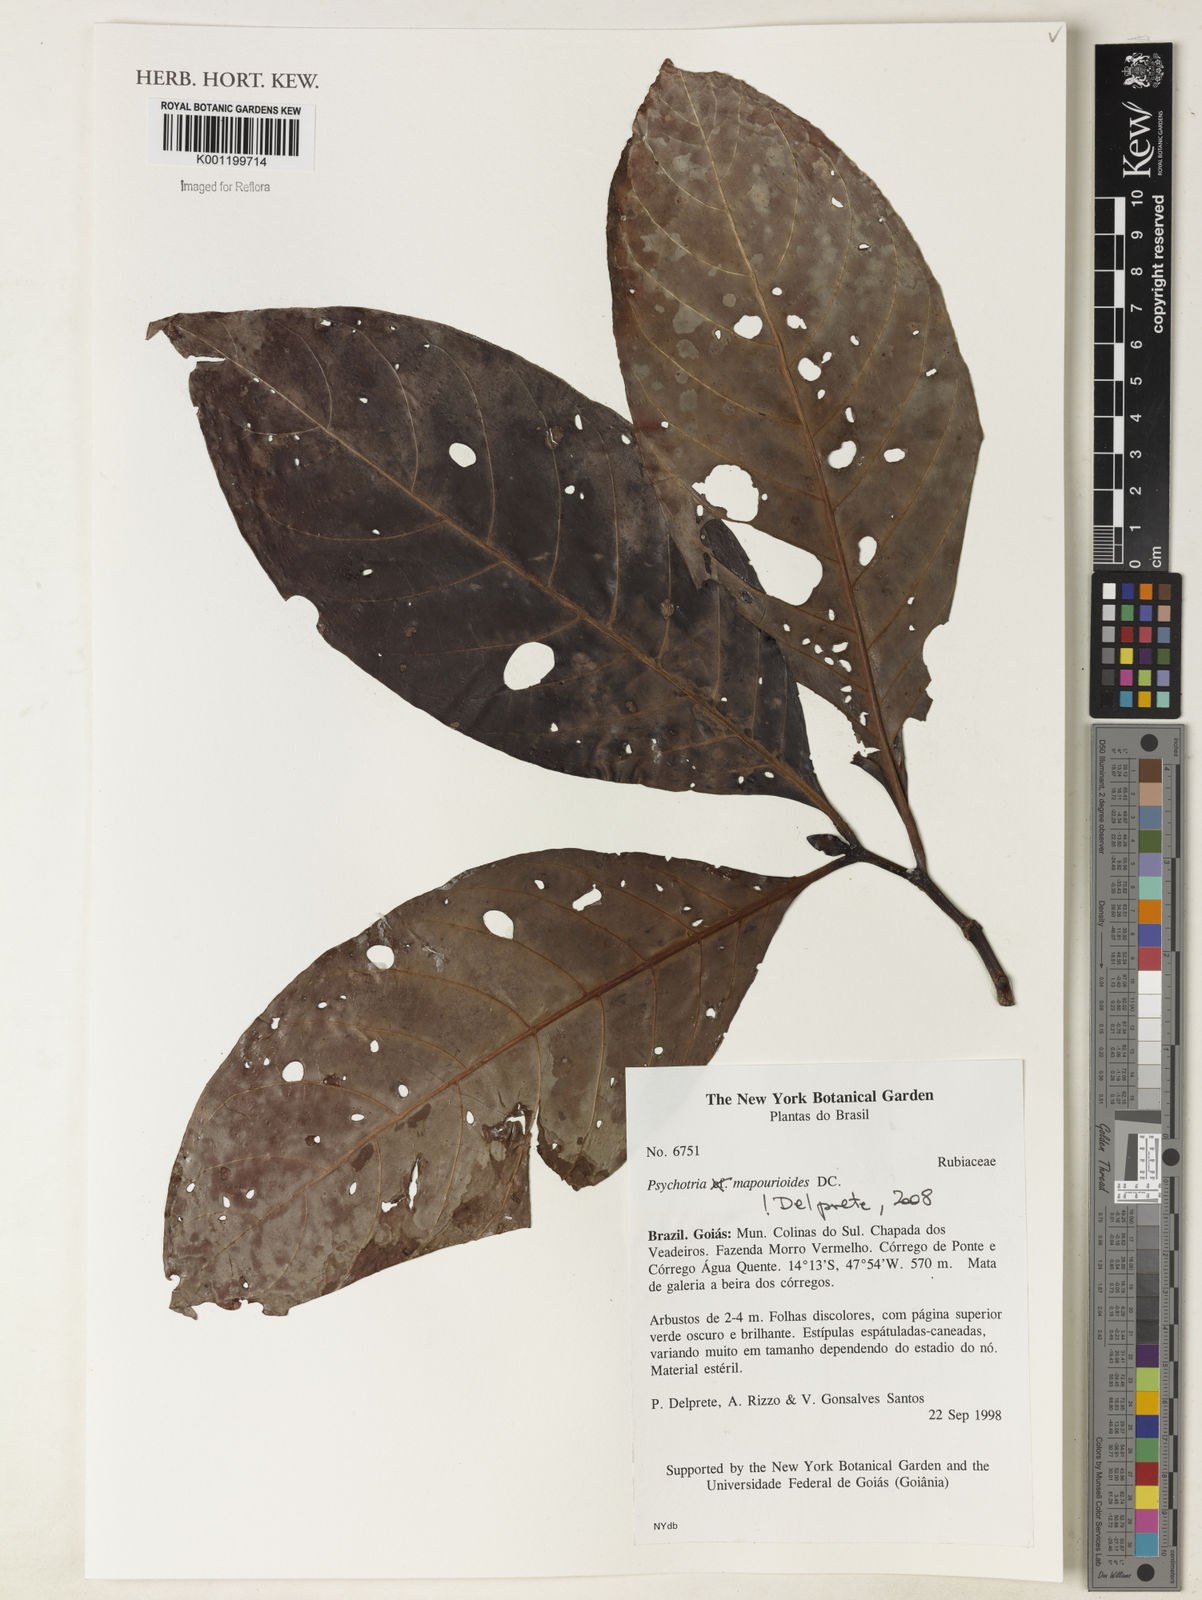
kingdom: Plantae
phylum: Tracheophyta
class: Magnoliopsida
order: Gentianales
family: Rubiaceae
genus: Psychotria
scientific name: Psychotria pedunculosa
